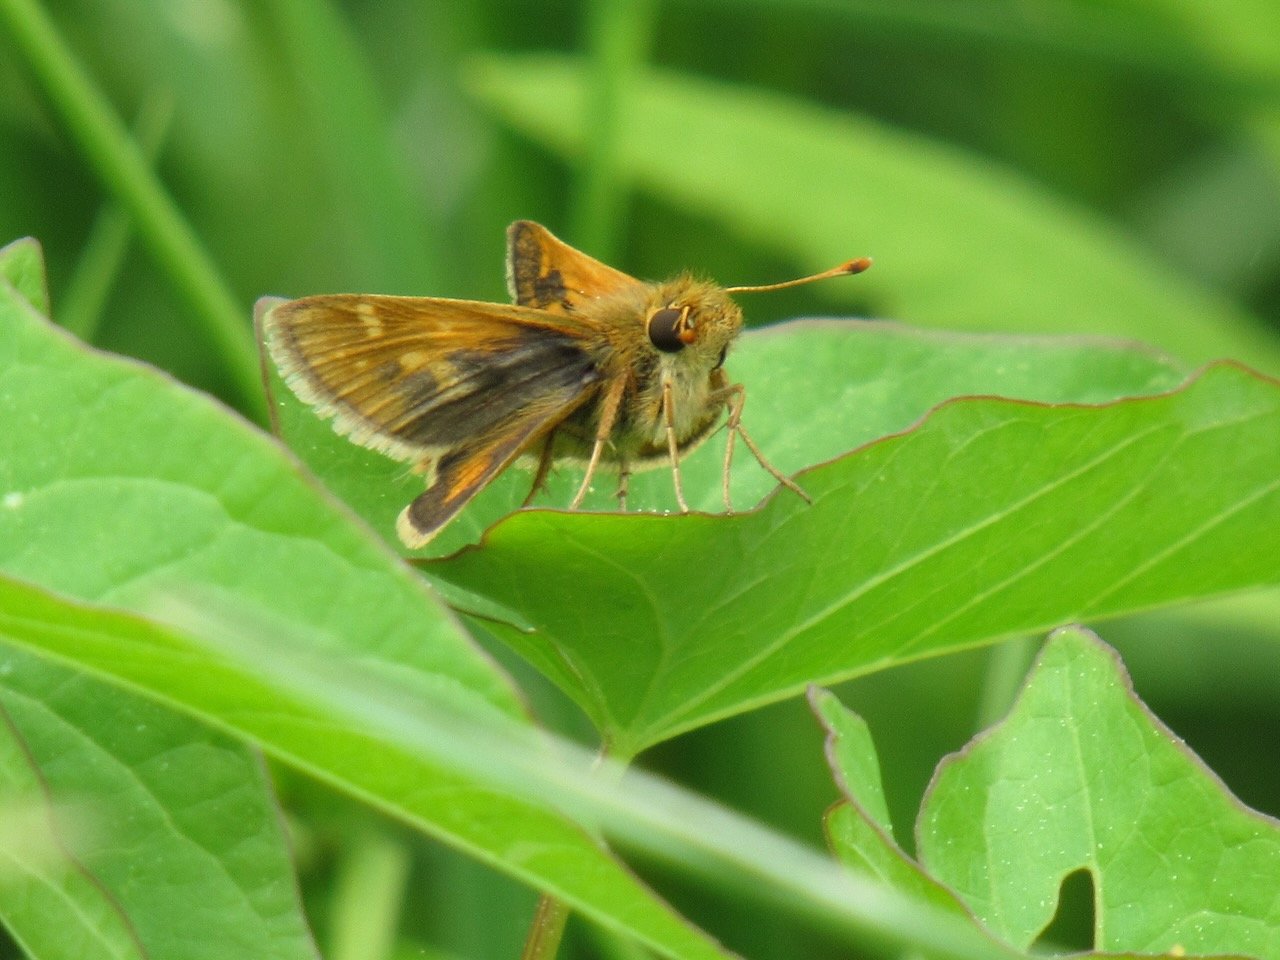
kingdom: Animalia
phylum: Arthropoda
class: Insecta
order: Lepidoptera
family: Hesperiidae
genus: Polites
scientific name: Polites coras
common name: Peck's Skipper
